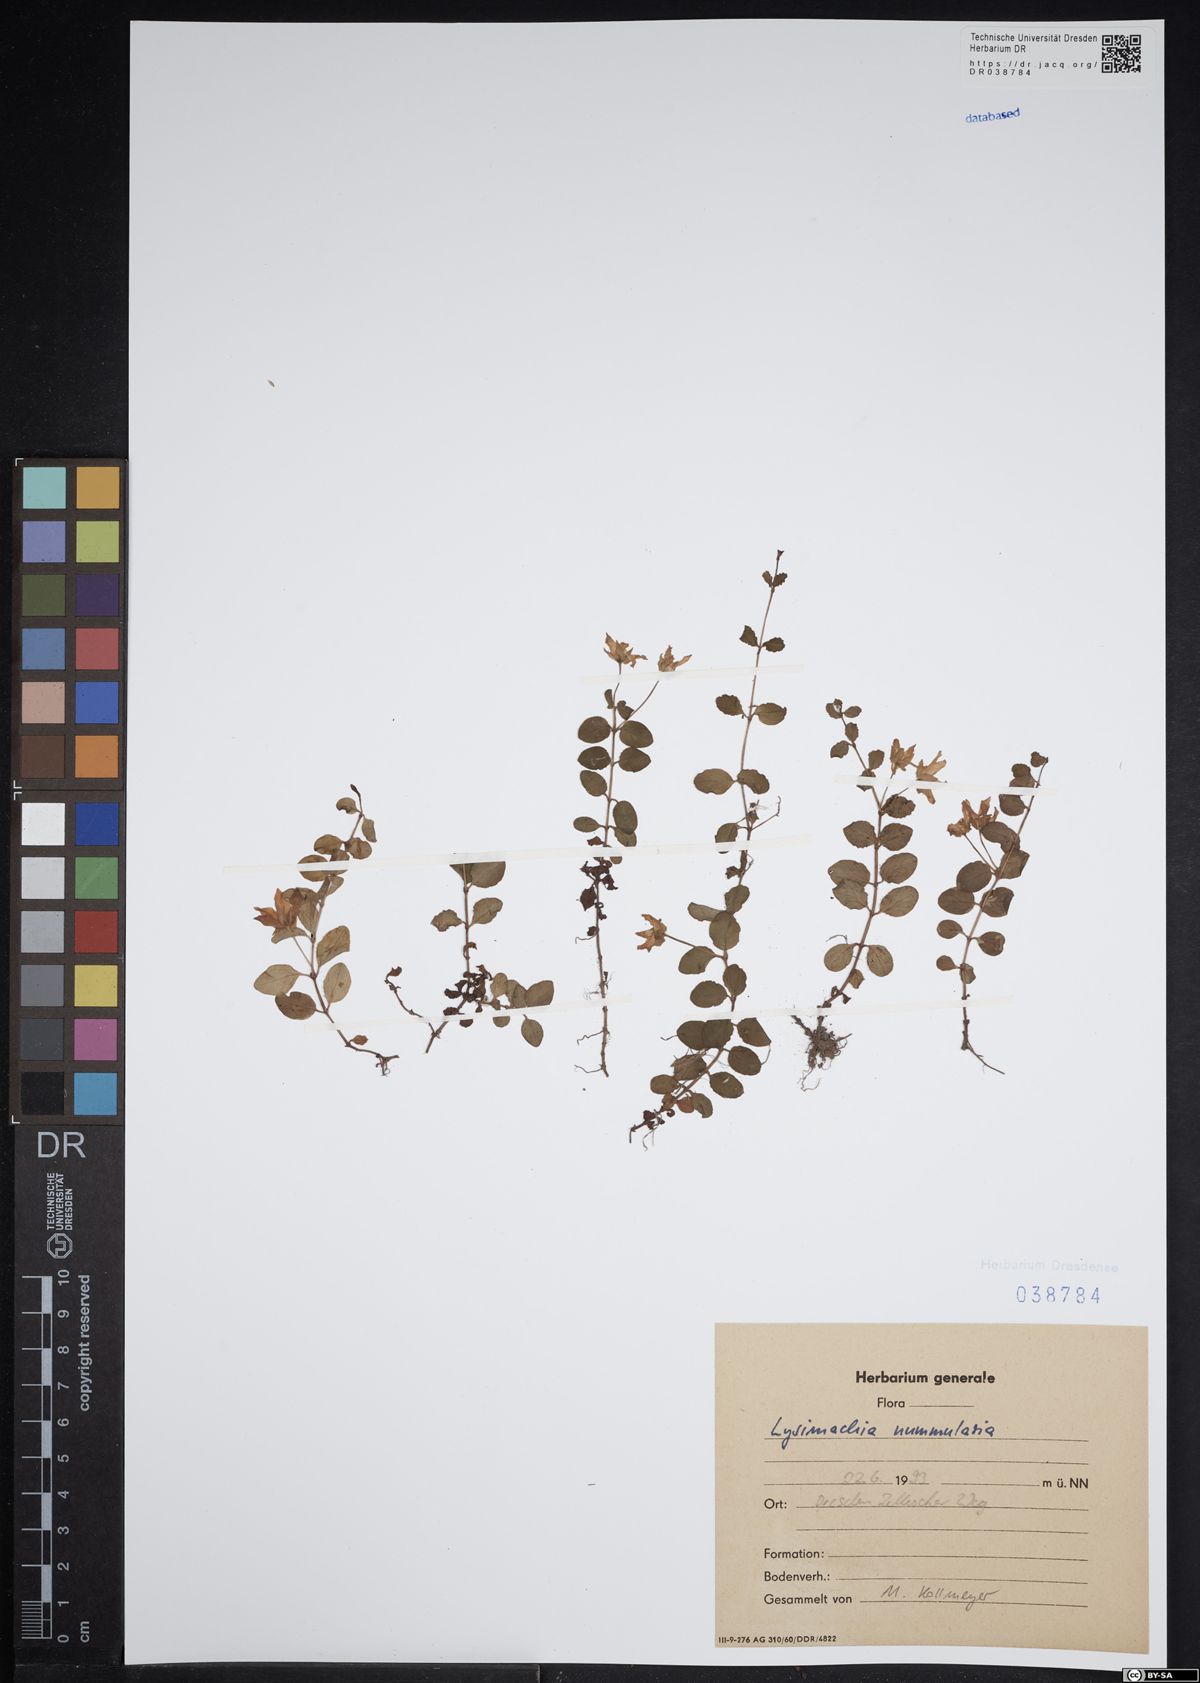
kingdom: Plantae
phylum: Tracheophyta
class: Magnoliopsida
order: Ericales
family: Primulaceae
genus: Lysimachia
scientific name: Lysimachia nummularia
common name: Moneywort
